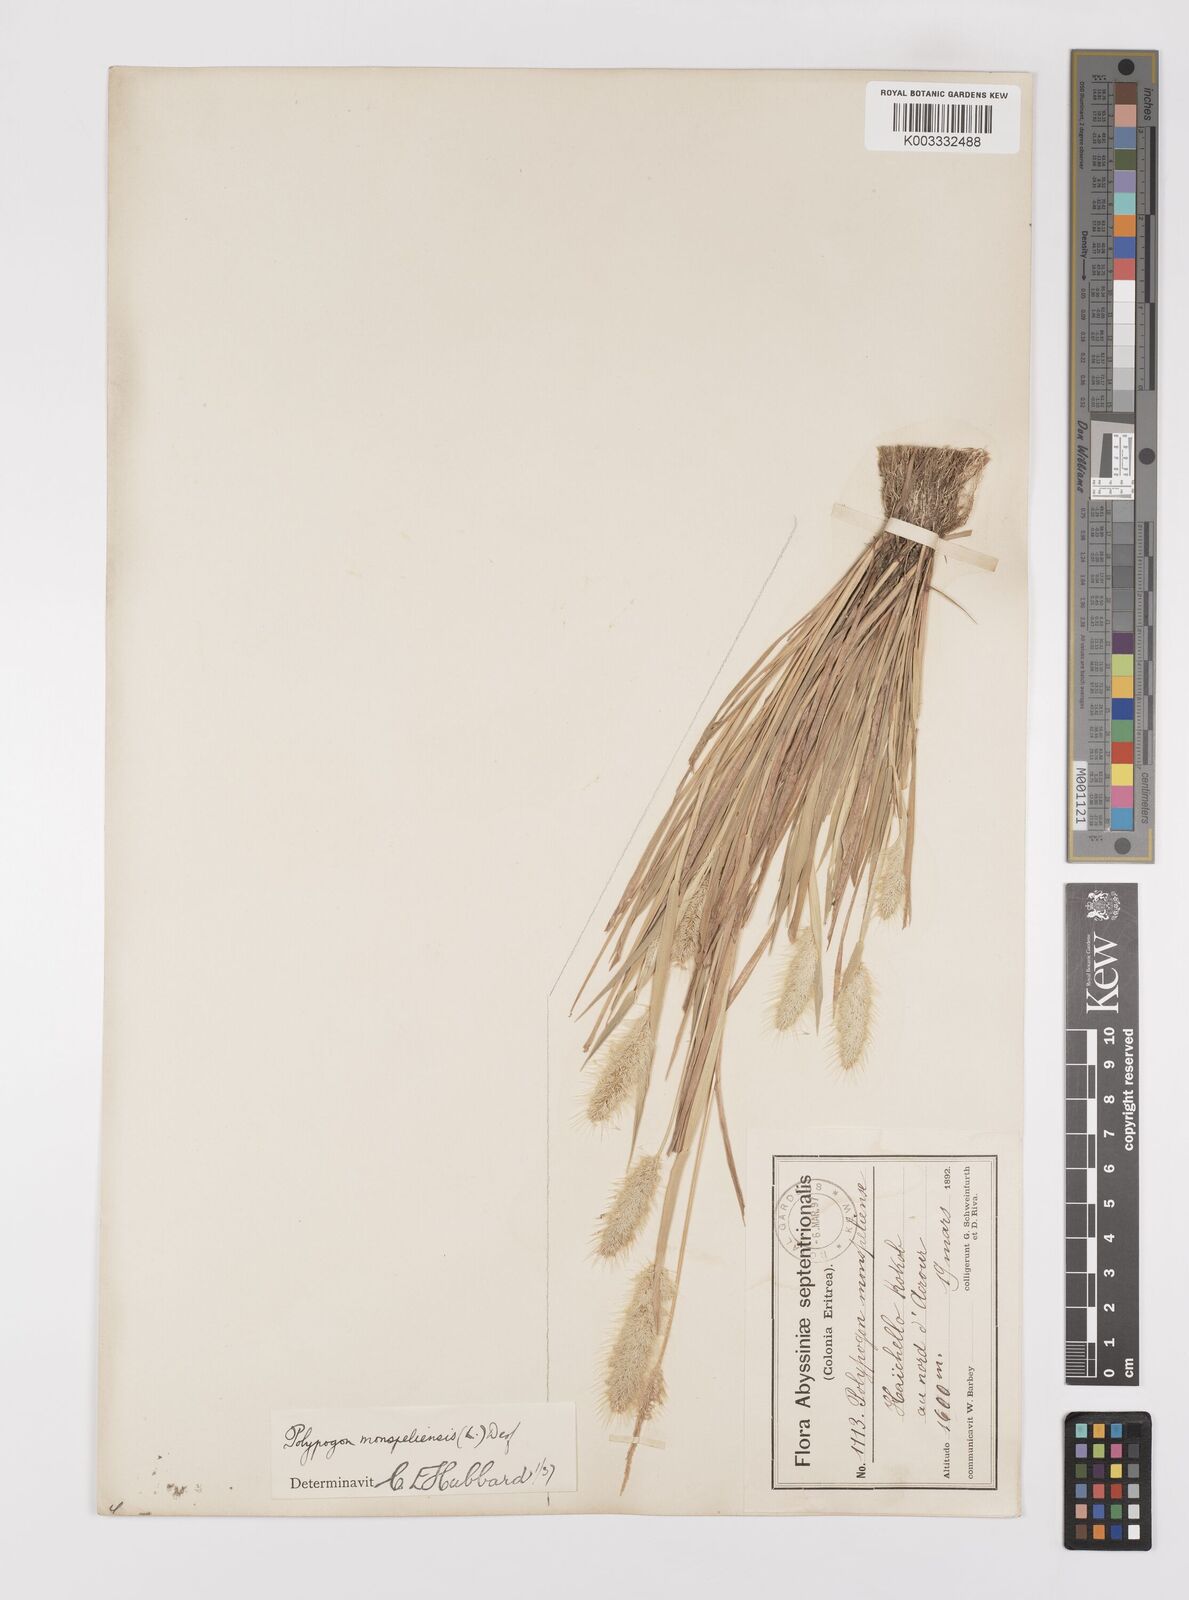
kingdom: Plantae
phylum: Tracheophyta
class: Liliopsida
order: Poales
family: Poaceae
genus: Polypogon
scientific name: Polypogon monspeliensis
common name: Annual rabbitsfoot grass
